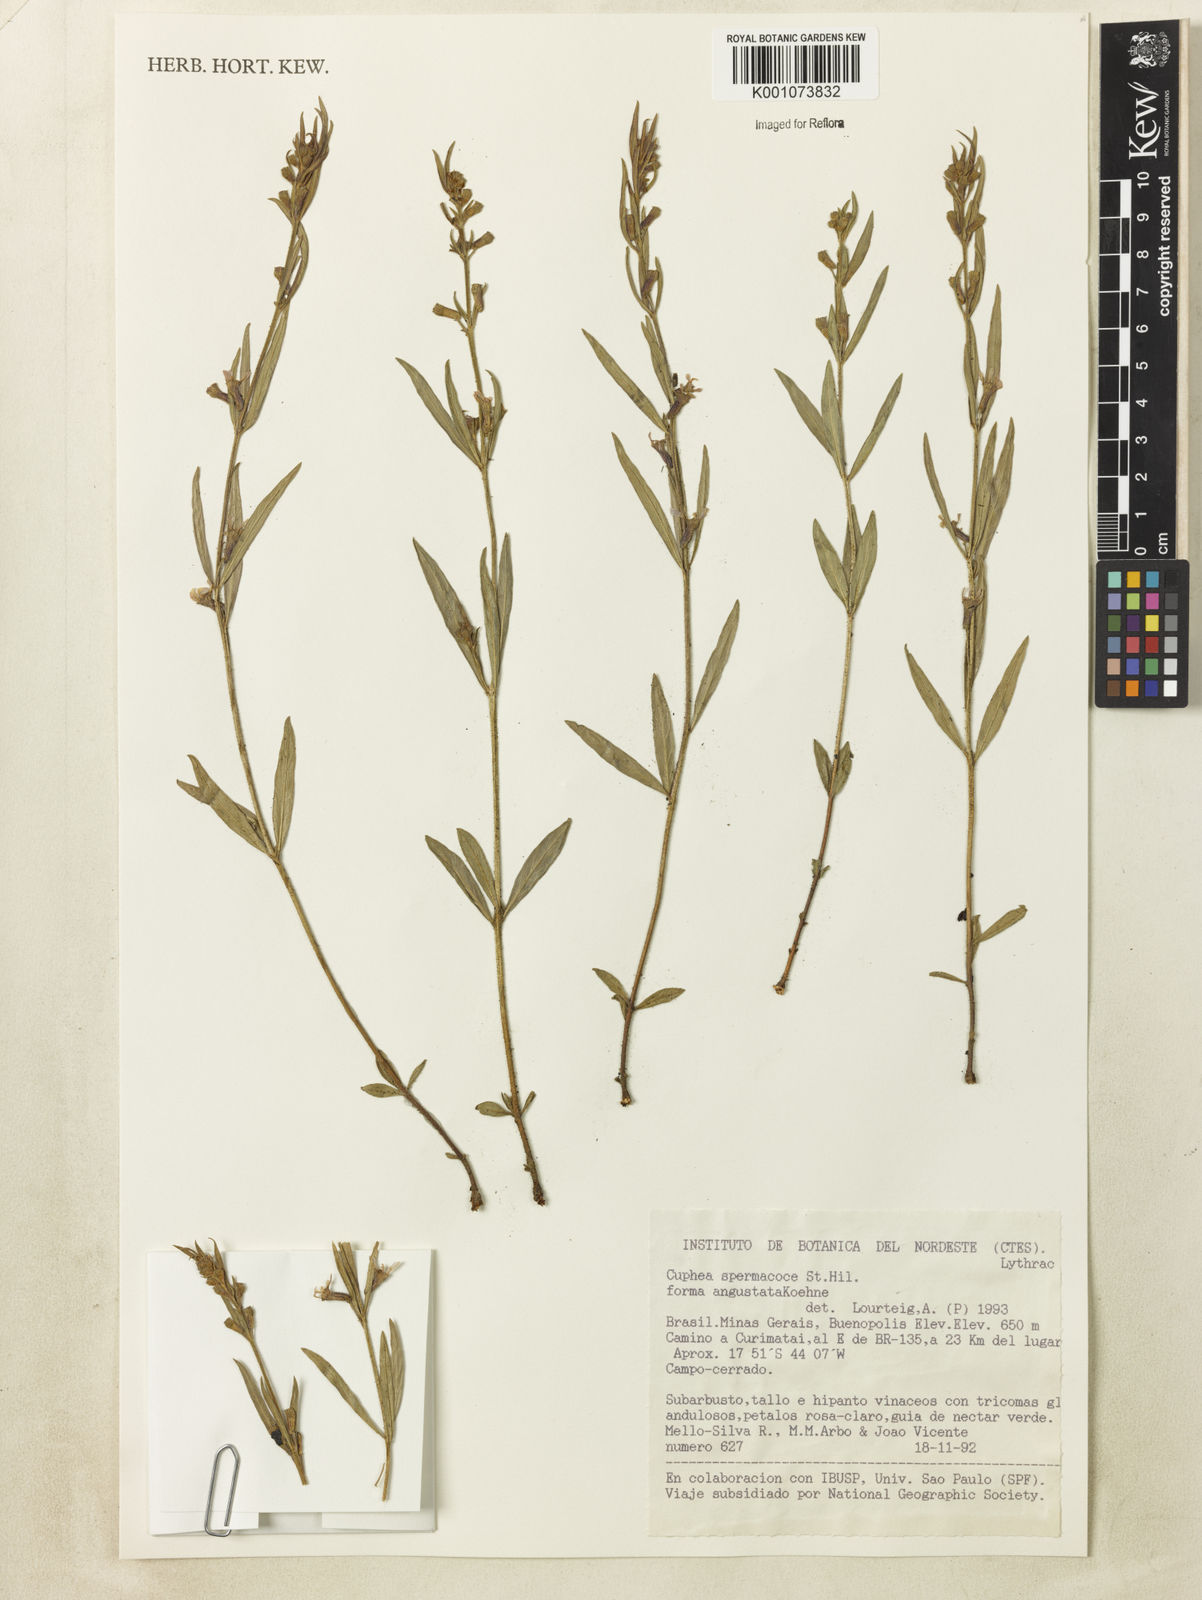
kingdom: Plantae
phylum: Tracheophyta
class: Magnoliopsida
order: Myrtales
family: Lythraceae
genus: Cuphea
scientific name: Cuphea spermacoce
